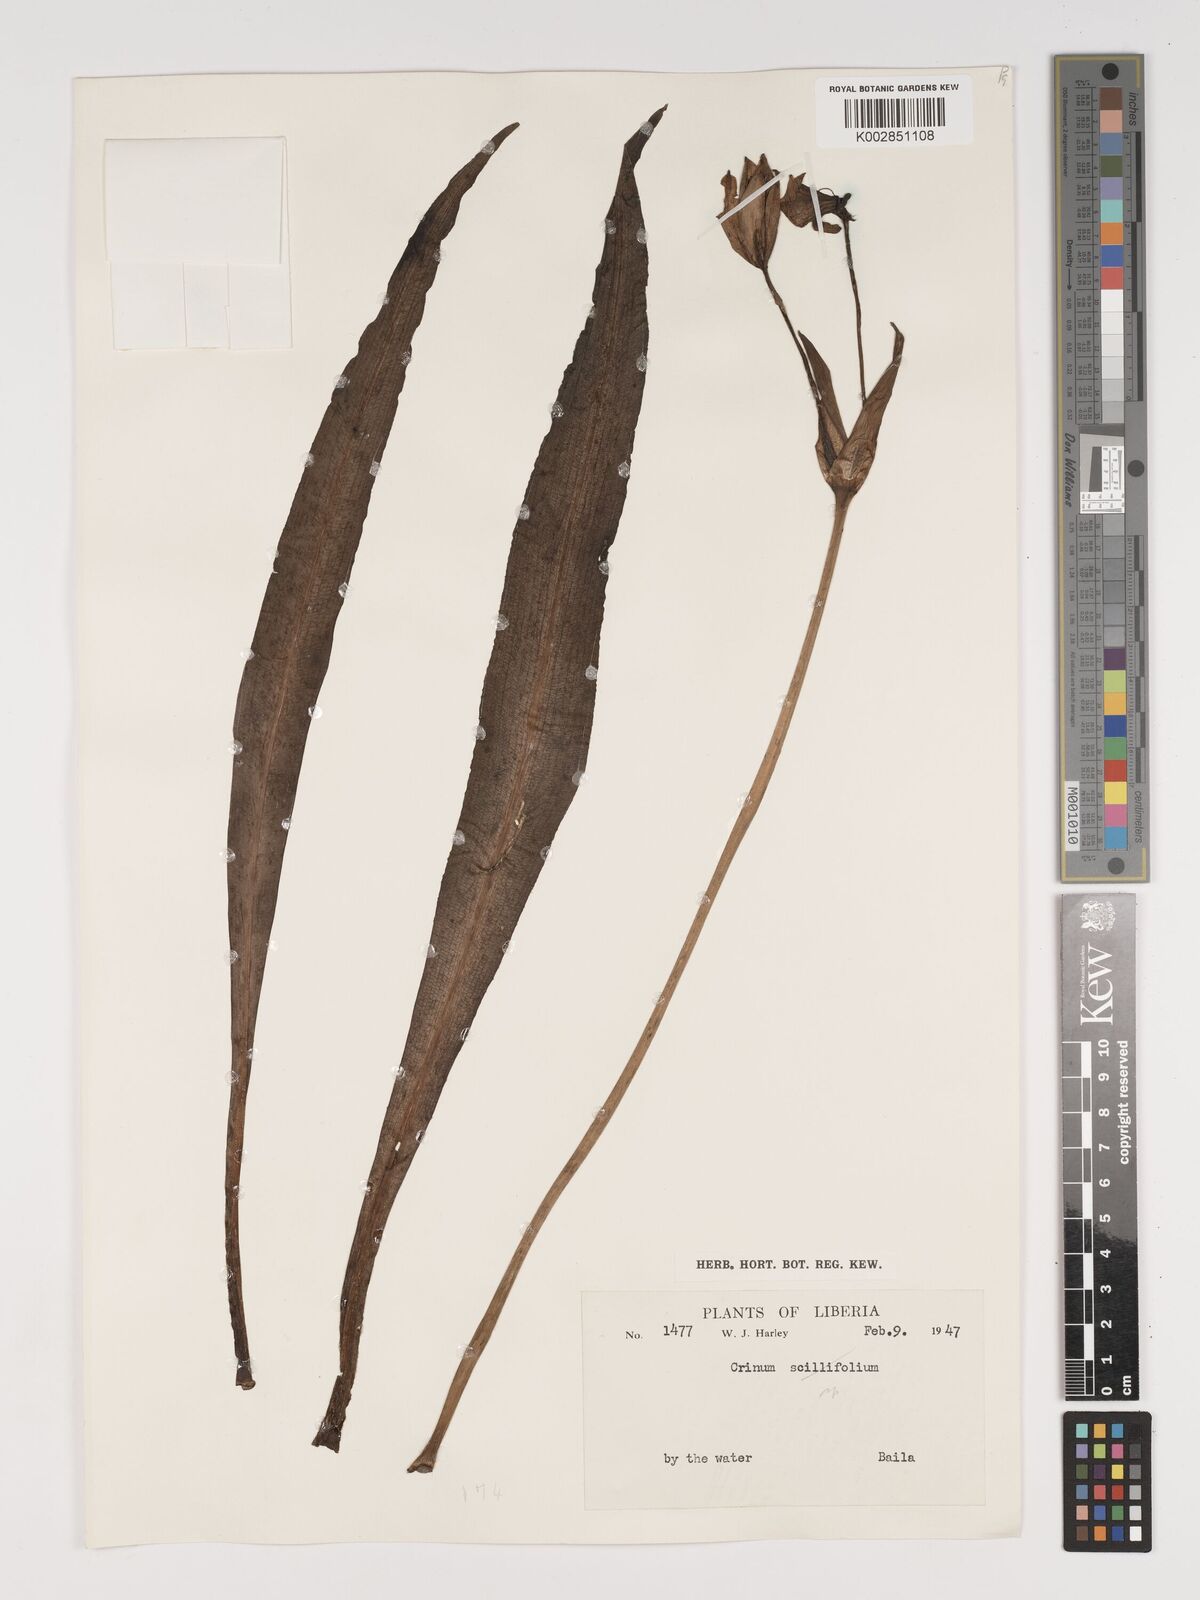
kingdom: Plantae
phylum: Tracheophyta
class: Liliopsida
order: Asparagales
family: Amaryllidaceae
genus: Crinum
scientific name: Crinum
